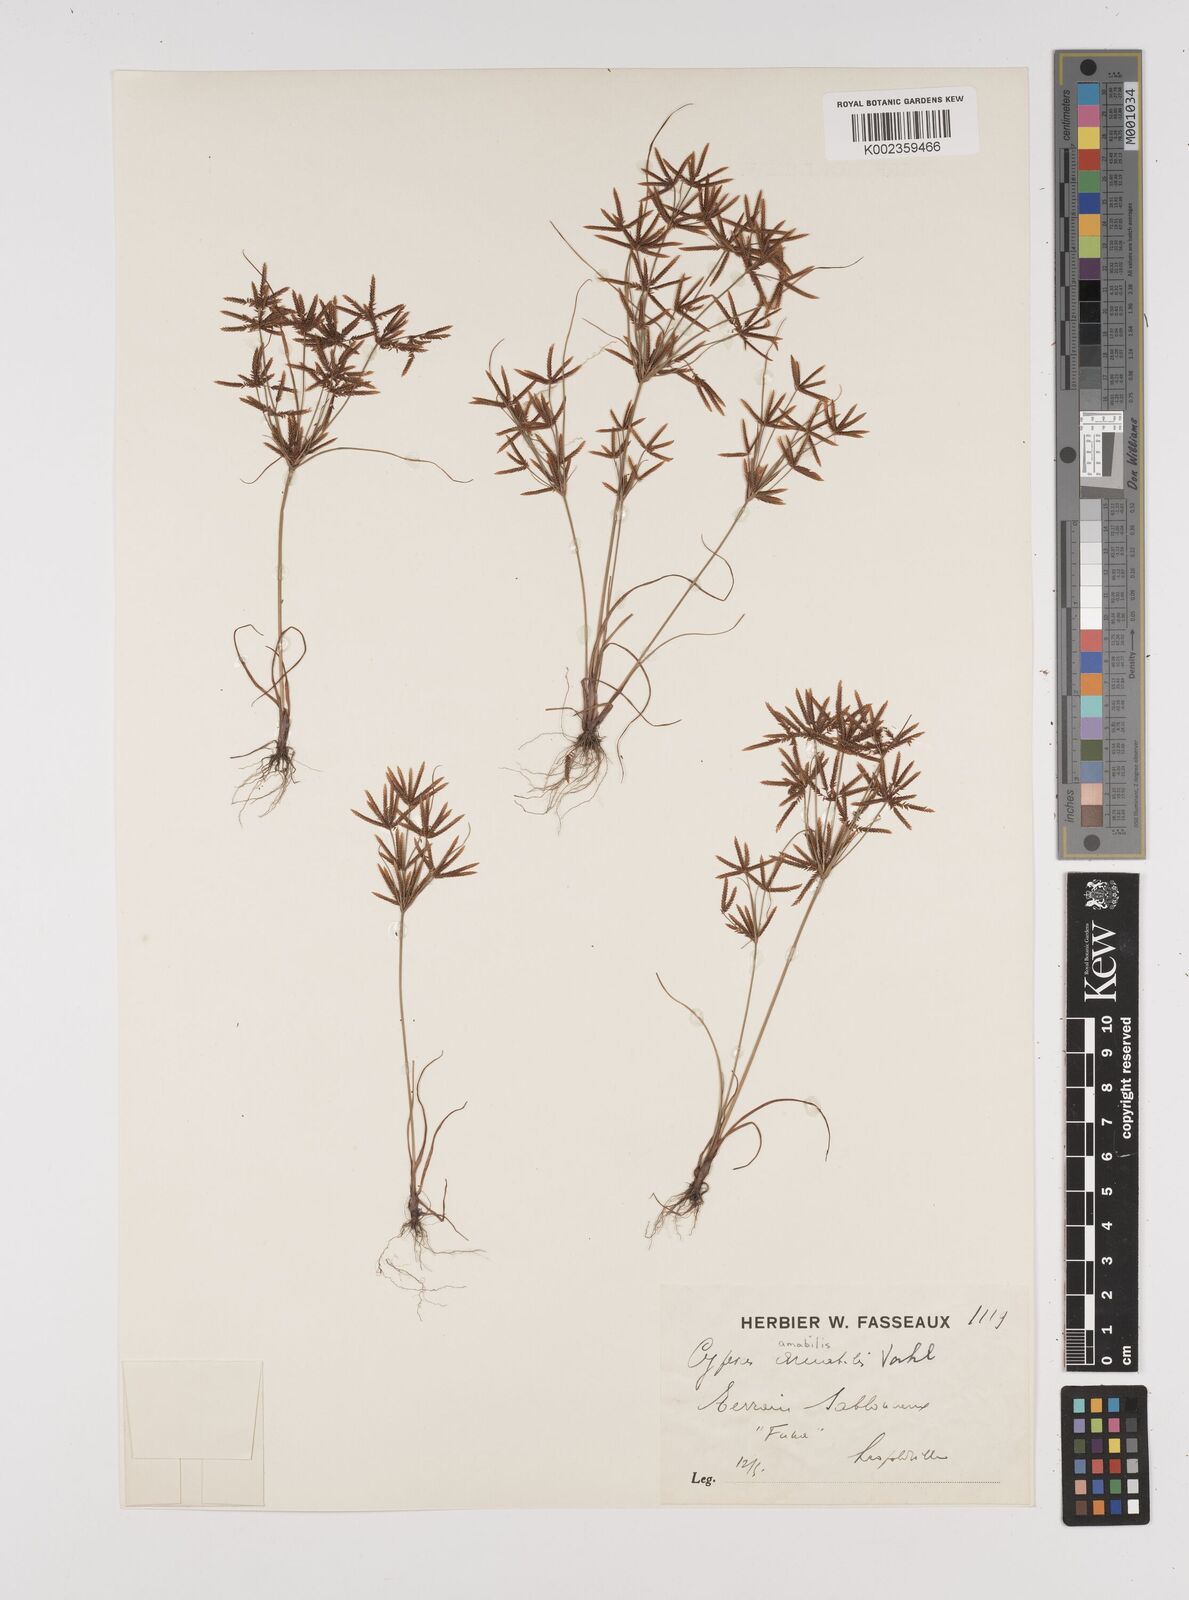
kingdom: Plantae
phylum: Tracheophyta
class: Liliopsida
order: Poales
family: Cyperaceae
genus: Cyperus
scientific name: Cyperus amabilis
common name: Foothill flat sedge
